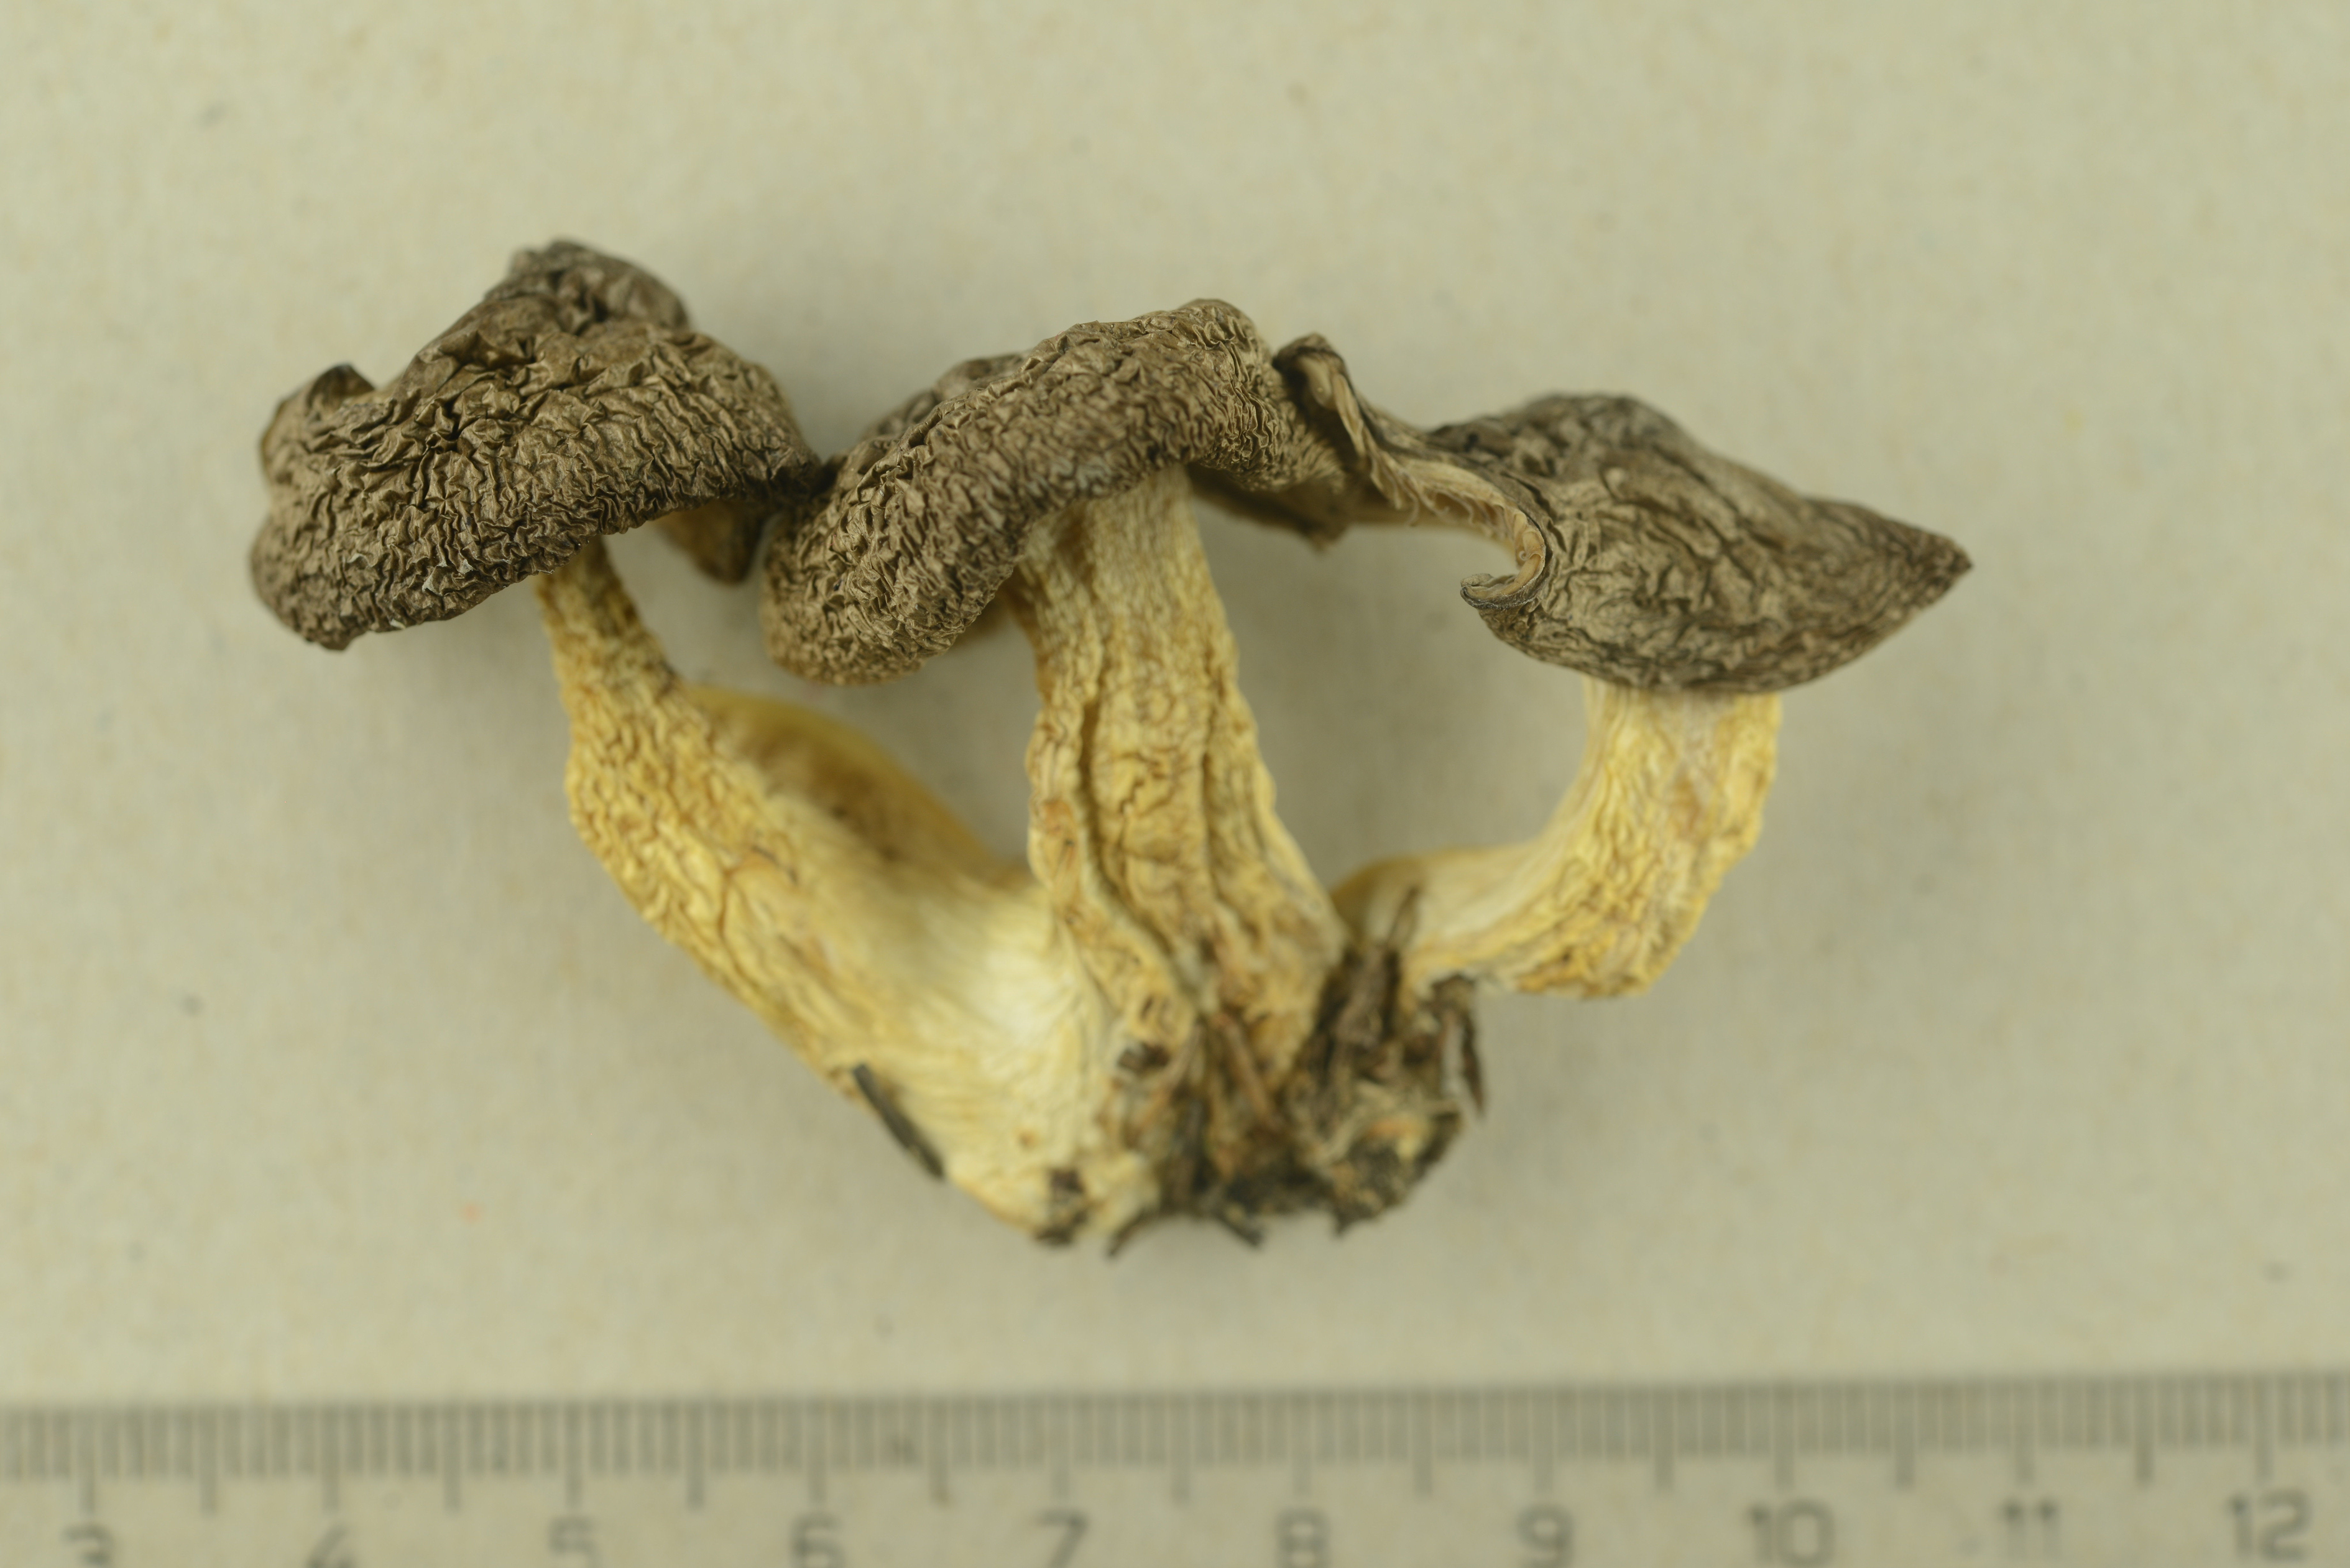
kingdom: Fungi
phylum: Basidiomycota
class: Agaricomycetes
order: Agaricales
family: Lyophyllaceae
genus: Lyophyllum
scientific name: Lyophyllum decastes
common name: Clustered domecap
